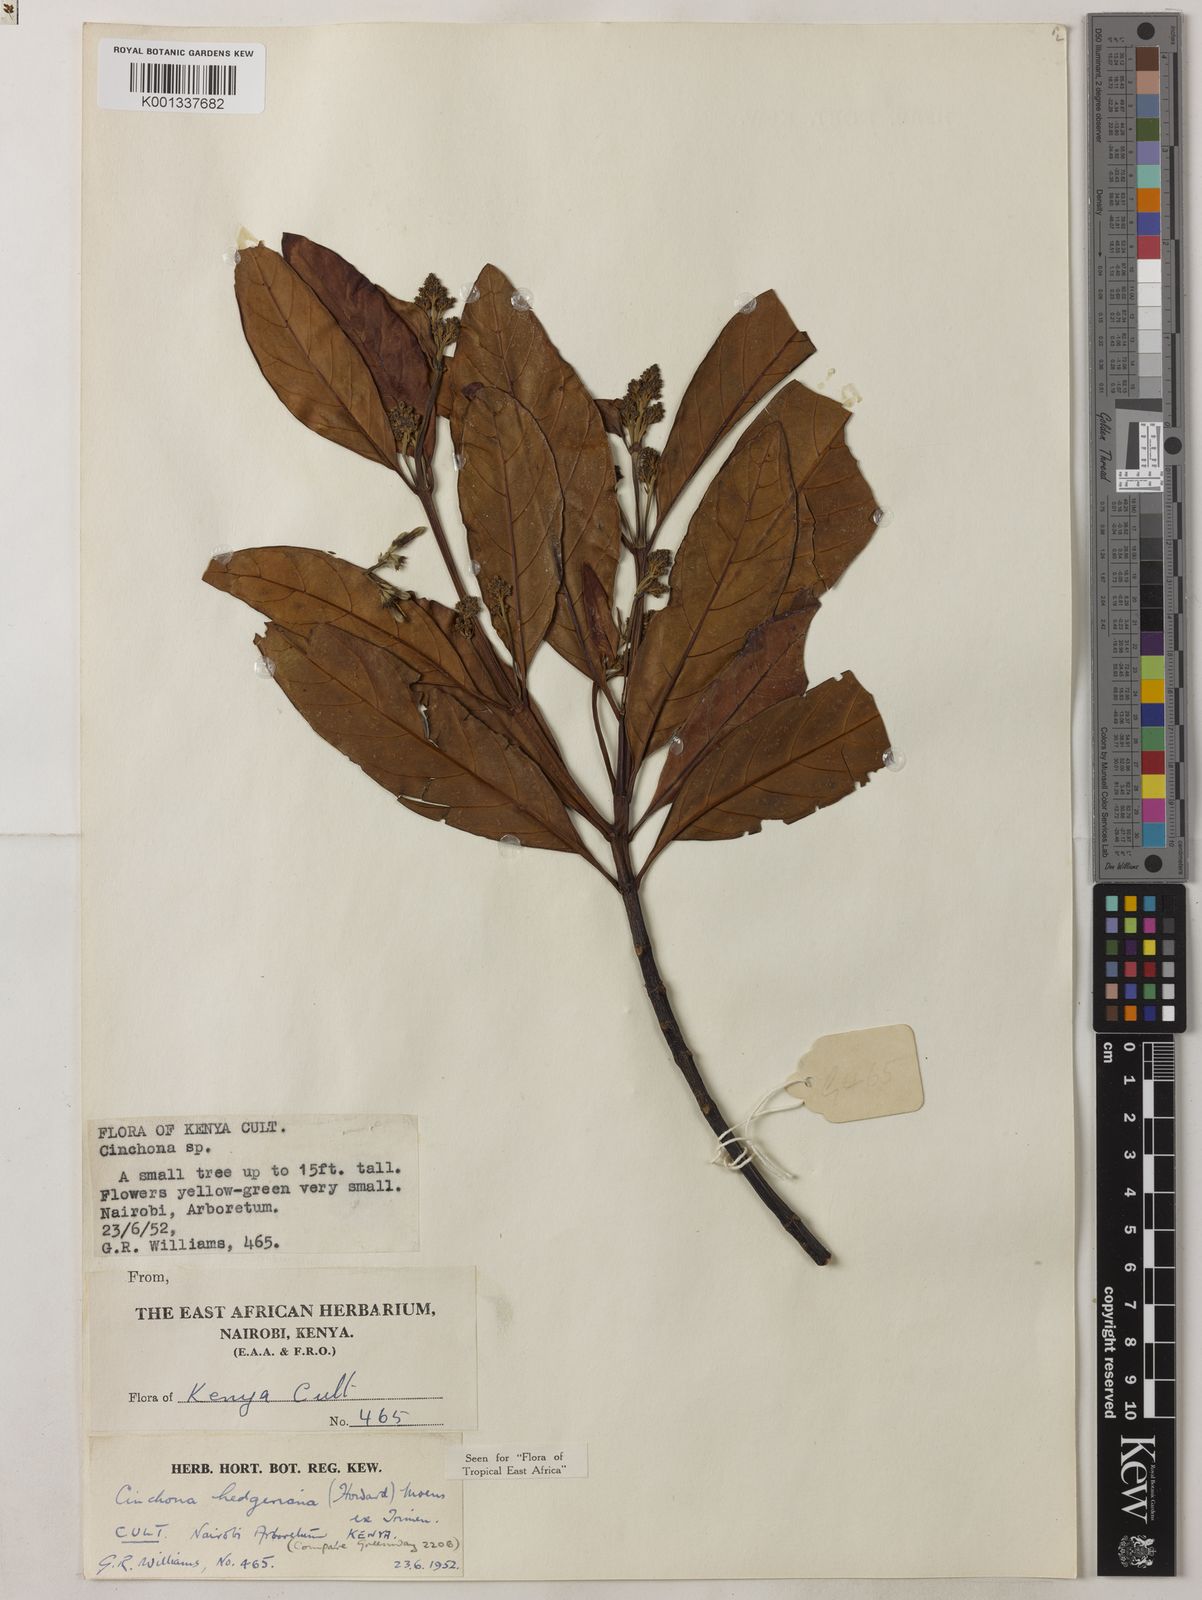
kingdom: Plantae
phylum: Tracheophyta
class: Magnoliopsida
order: Gentianales
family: Rubiaceae
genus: Cinchona
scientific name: Cinchona calisaya
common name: Ledgerbark
